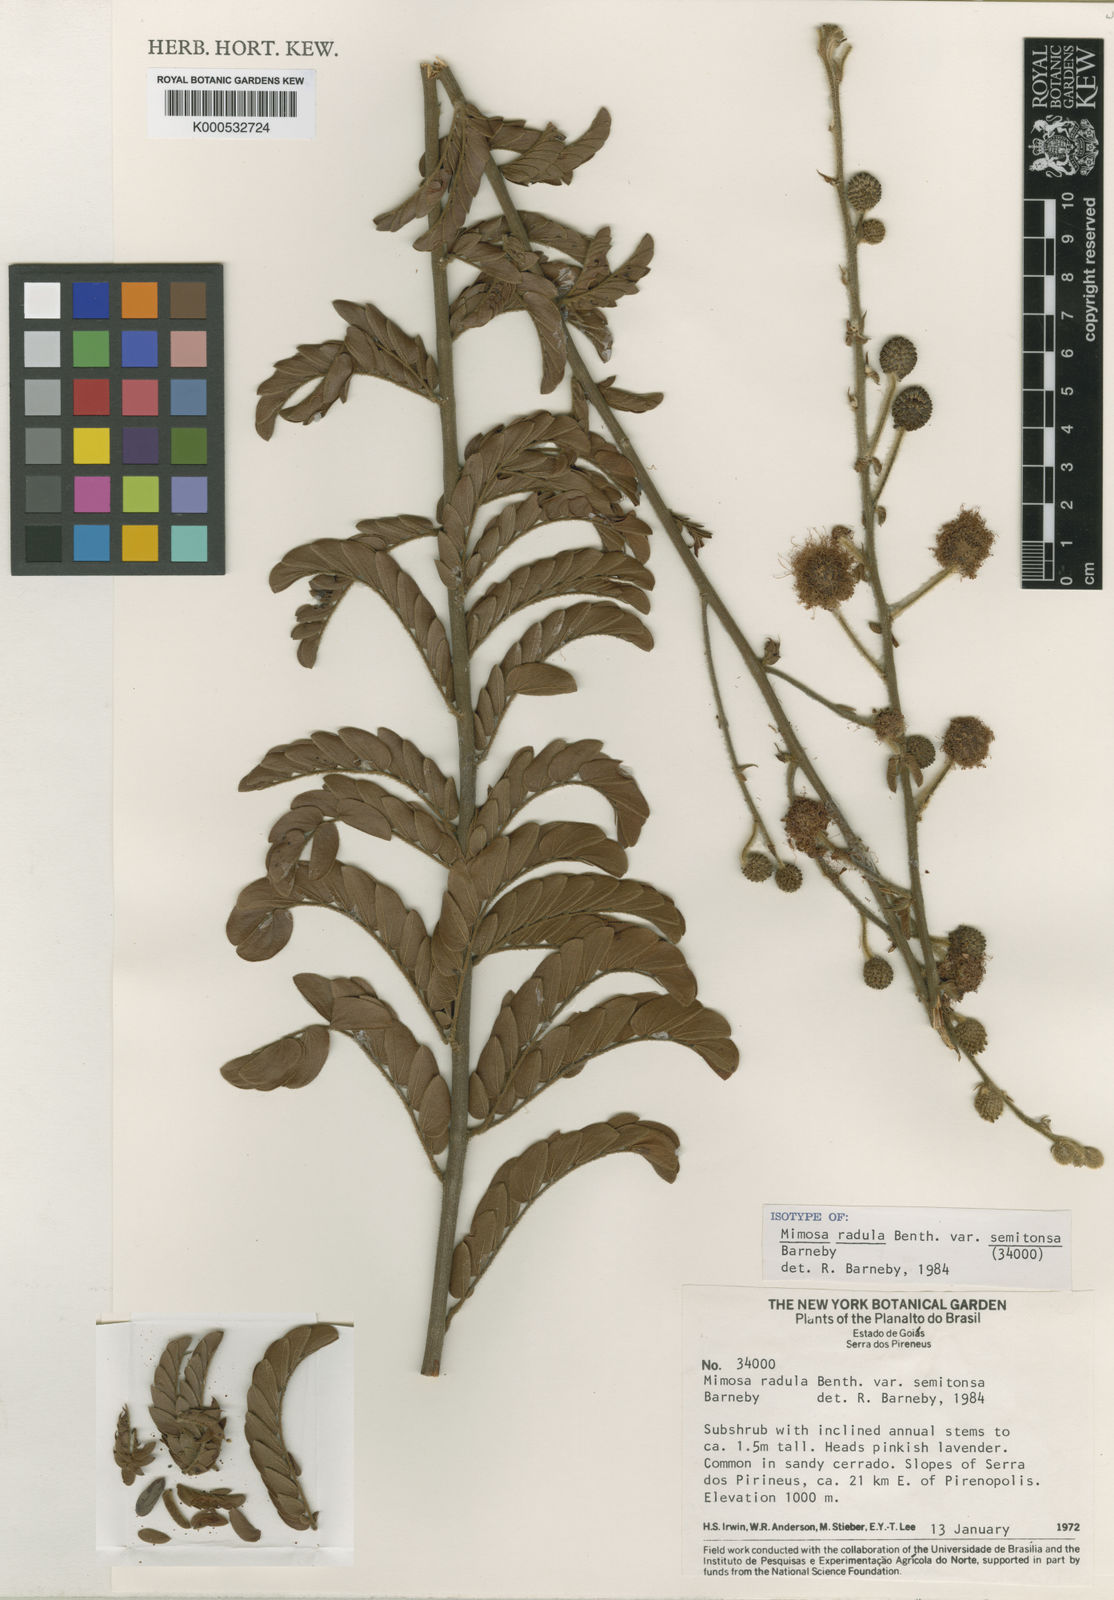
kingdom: Plantae
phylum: Tracheophyta
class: Magnoliopsida
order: Fabales
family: Fabaceae
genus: Mimosa
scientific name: Mimosa radula
